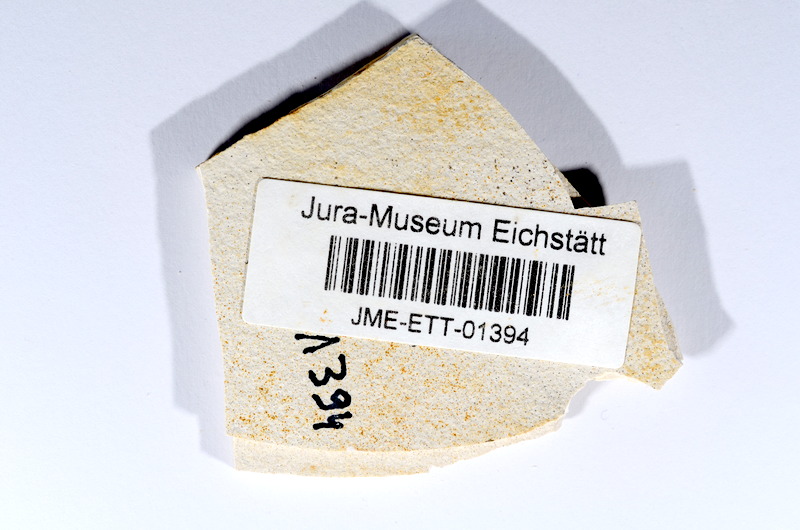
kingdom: Animalia
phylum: Chordata
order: Salmoniformes
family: Orthogonikleithridae
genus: Orthogonikleithrus
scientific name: Orthogonikleithrus hoelli
